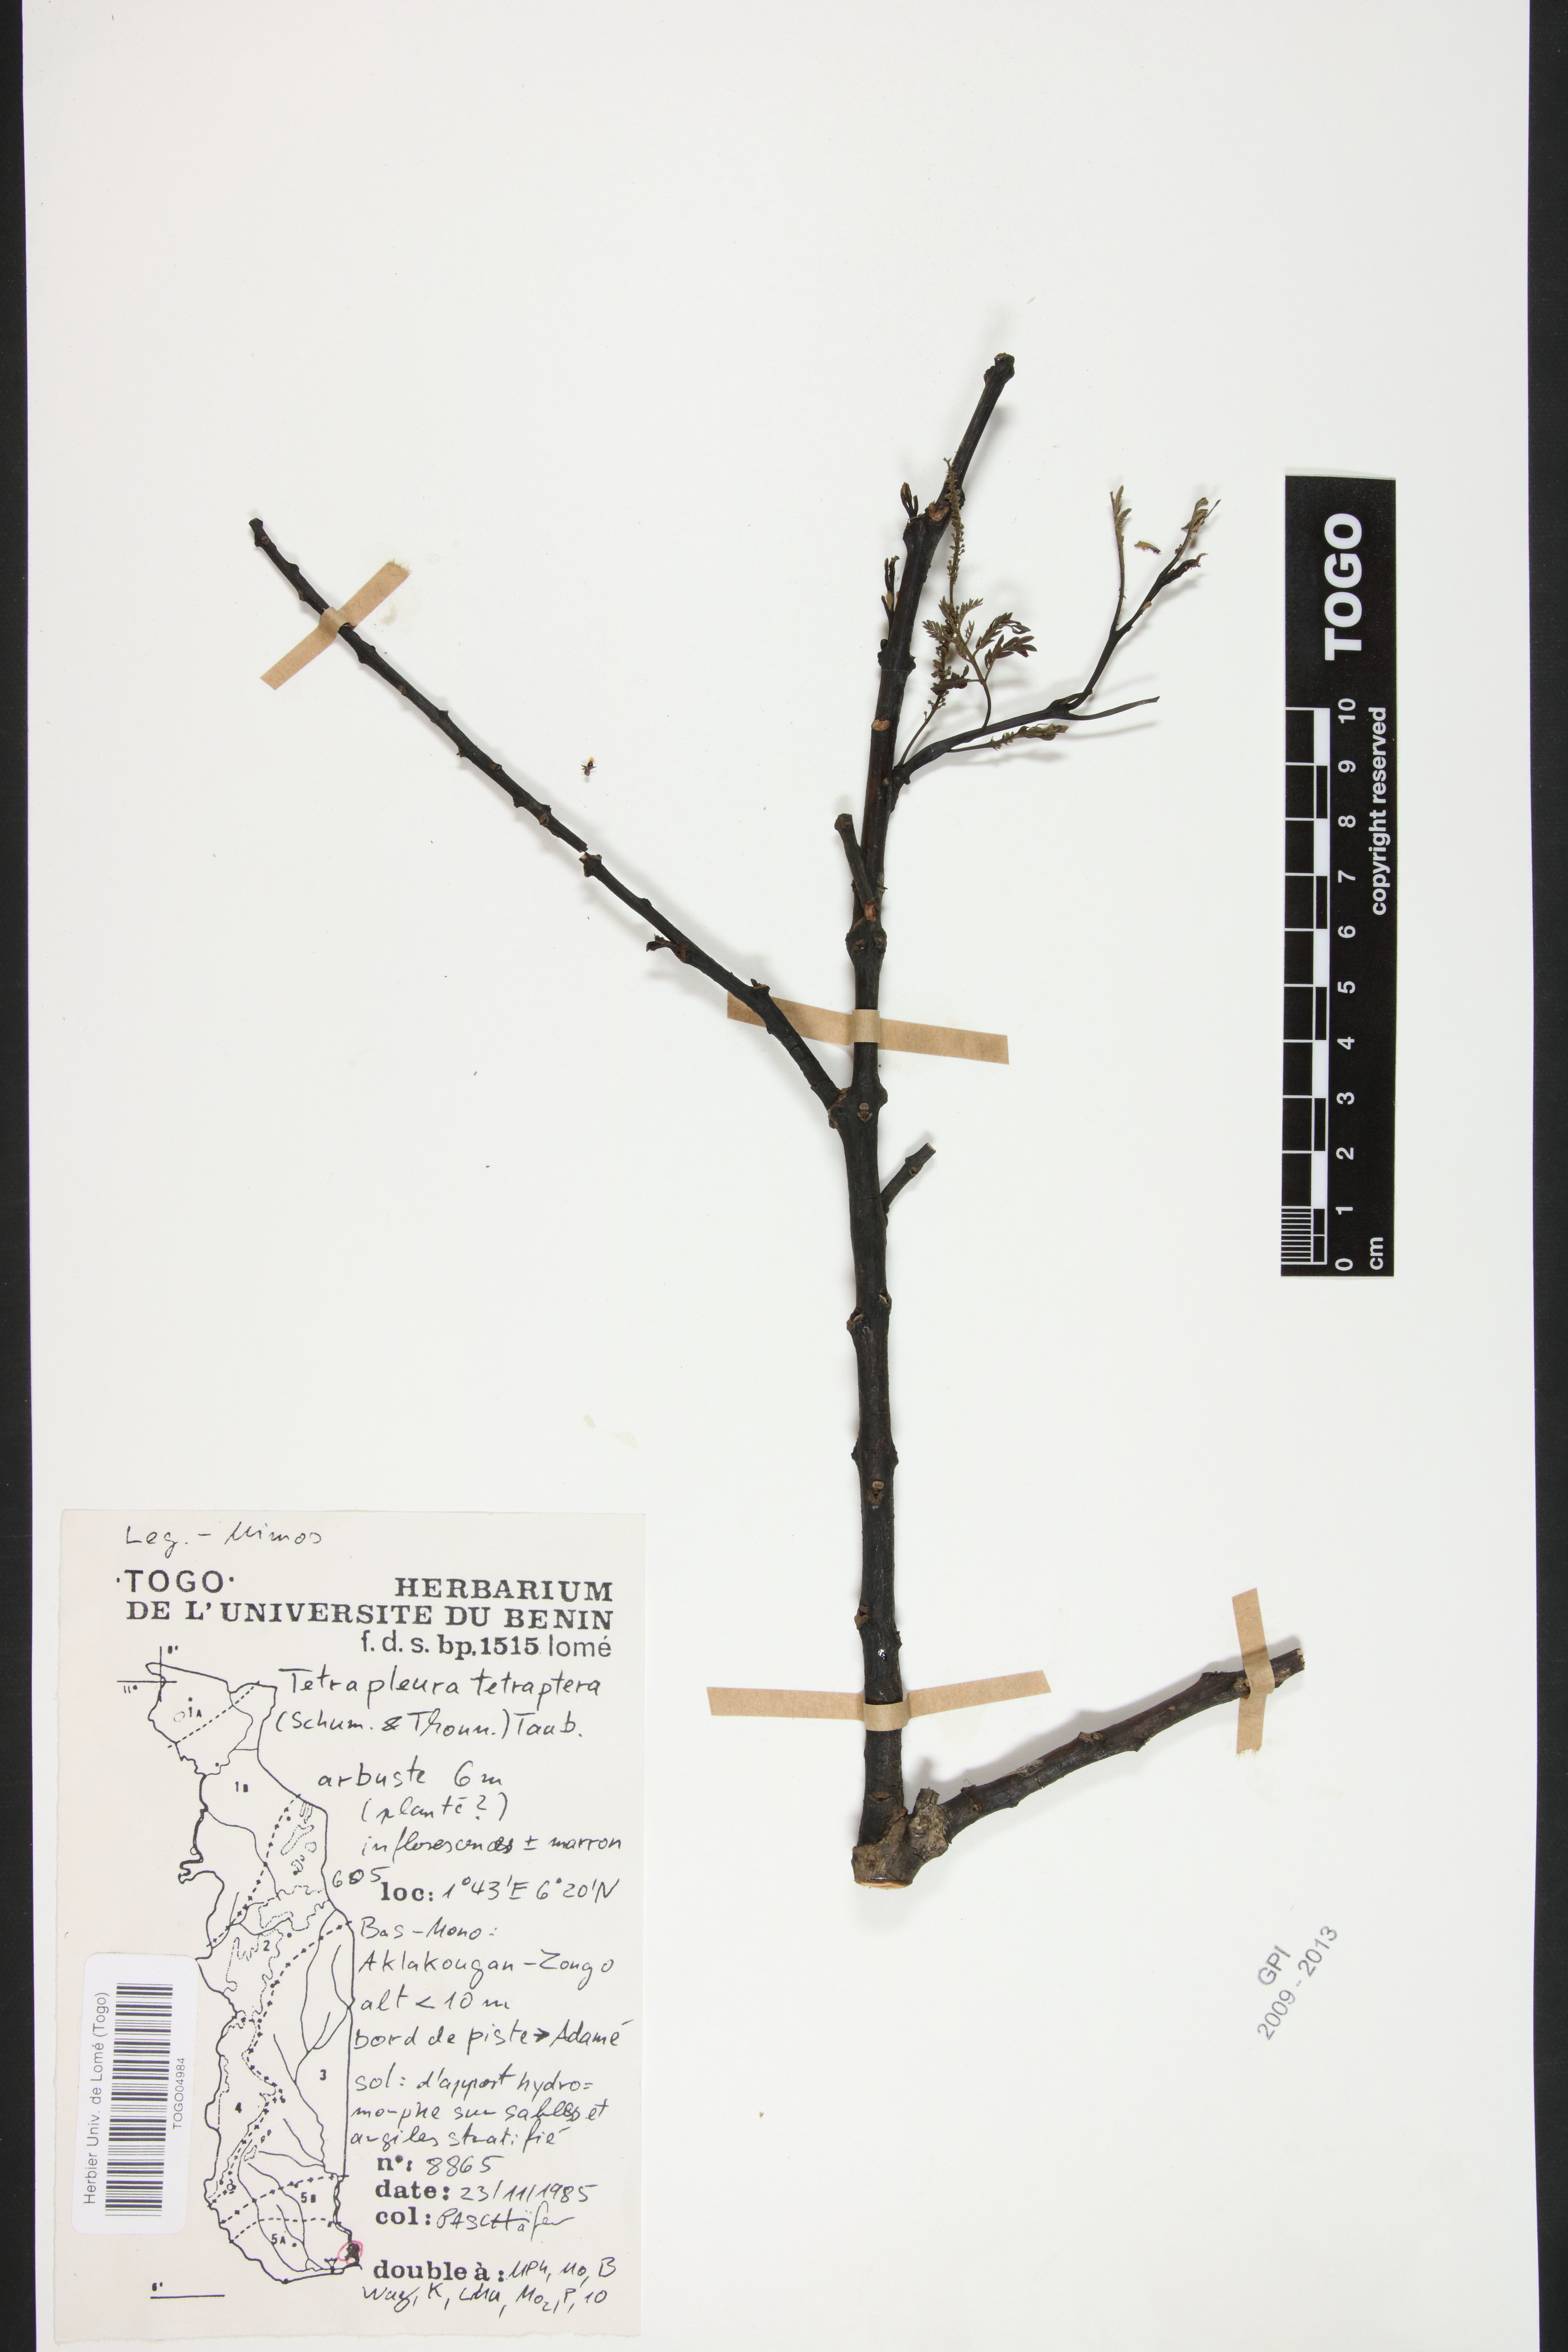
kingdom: Plantae
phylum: Tracheophyta
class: Magnoliopsida
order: Fabales
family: Fabaceae
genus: Tetrapleura
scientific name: Tetrapleura tetraptera
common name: Aridan
